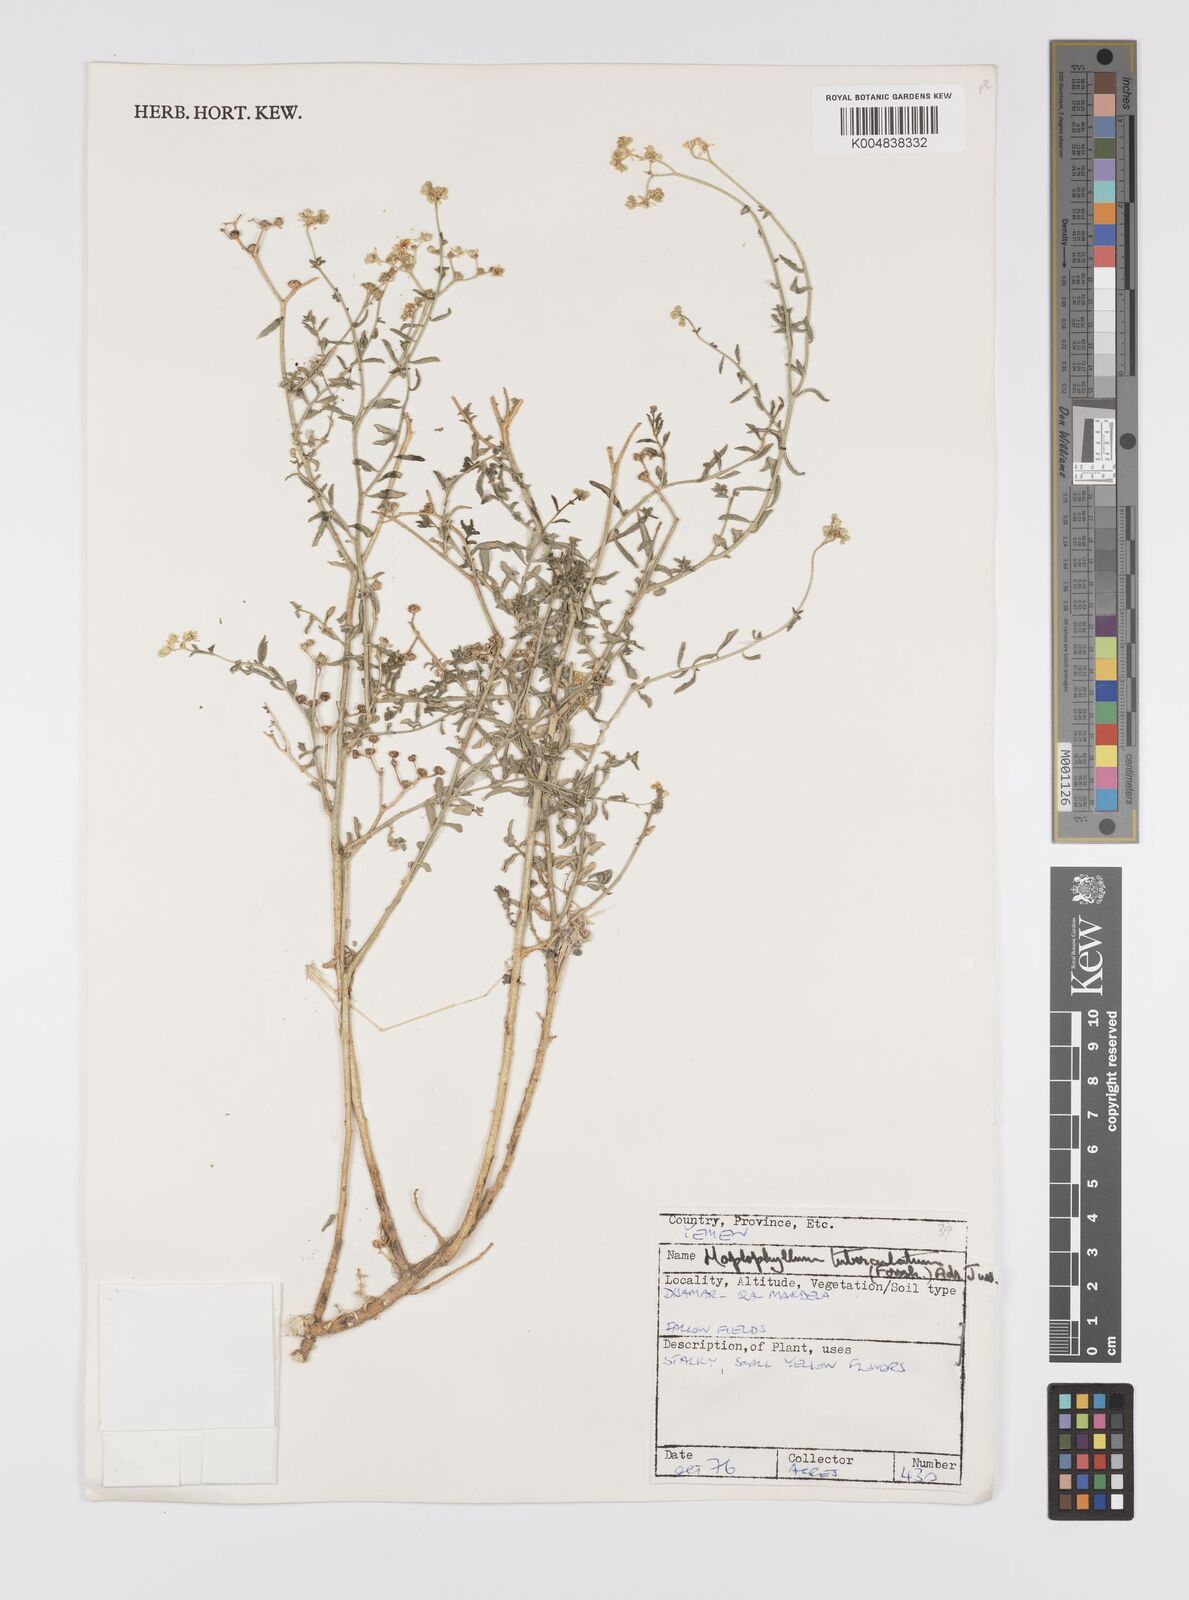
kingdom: Plantae
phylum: Tracheophyta
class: Magnoliopsida
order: Sapindales
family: Rutaceae
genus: Haplophyllum
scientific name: Haplophyllum tuberculatum
